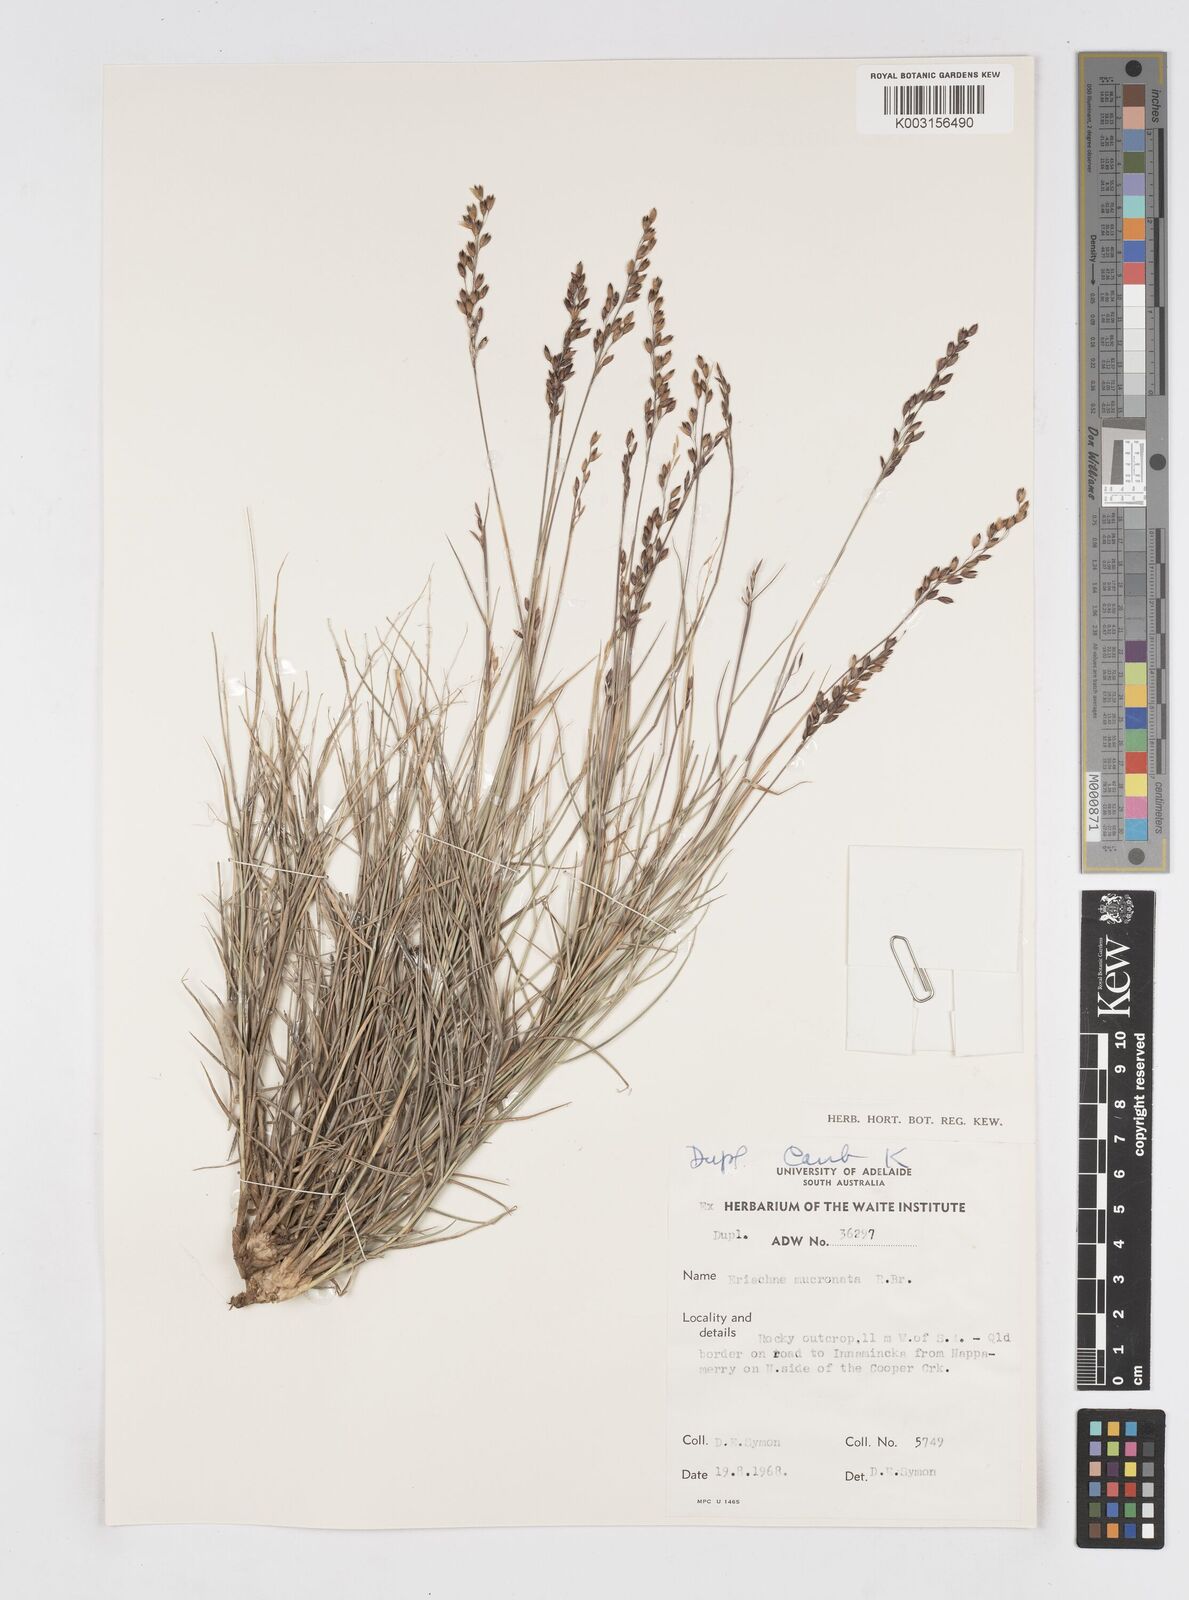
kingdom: Plantae
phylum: Tracheophyta
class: Liliopsida
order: Poales
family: Poaceae
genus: Eriachne
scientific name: Eriachne mucronata
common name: Mountain wanderrie grass
